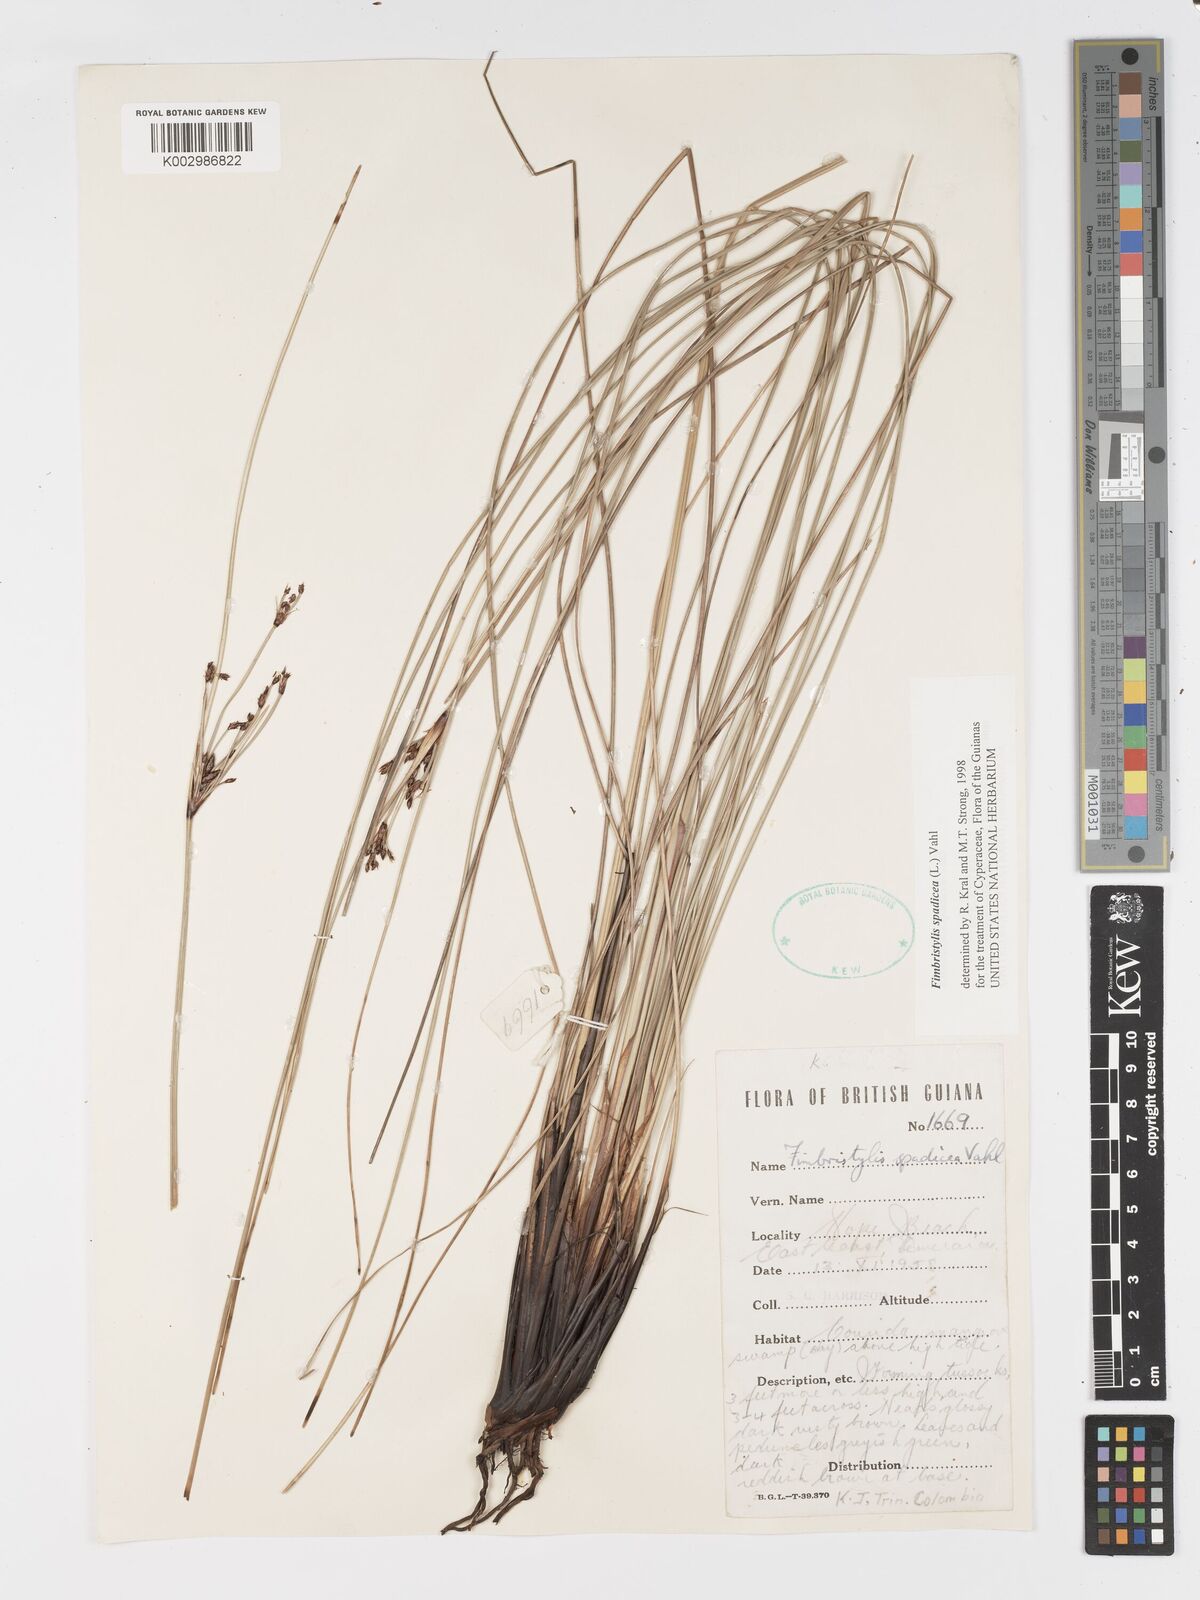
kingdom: Plantae
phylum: Tracheophyta
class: Liliopsida
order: Poales
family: Cyperaceae
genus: Fimbristylis
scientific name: Fimbristylis spadicea
